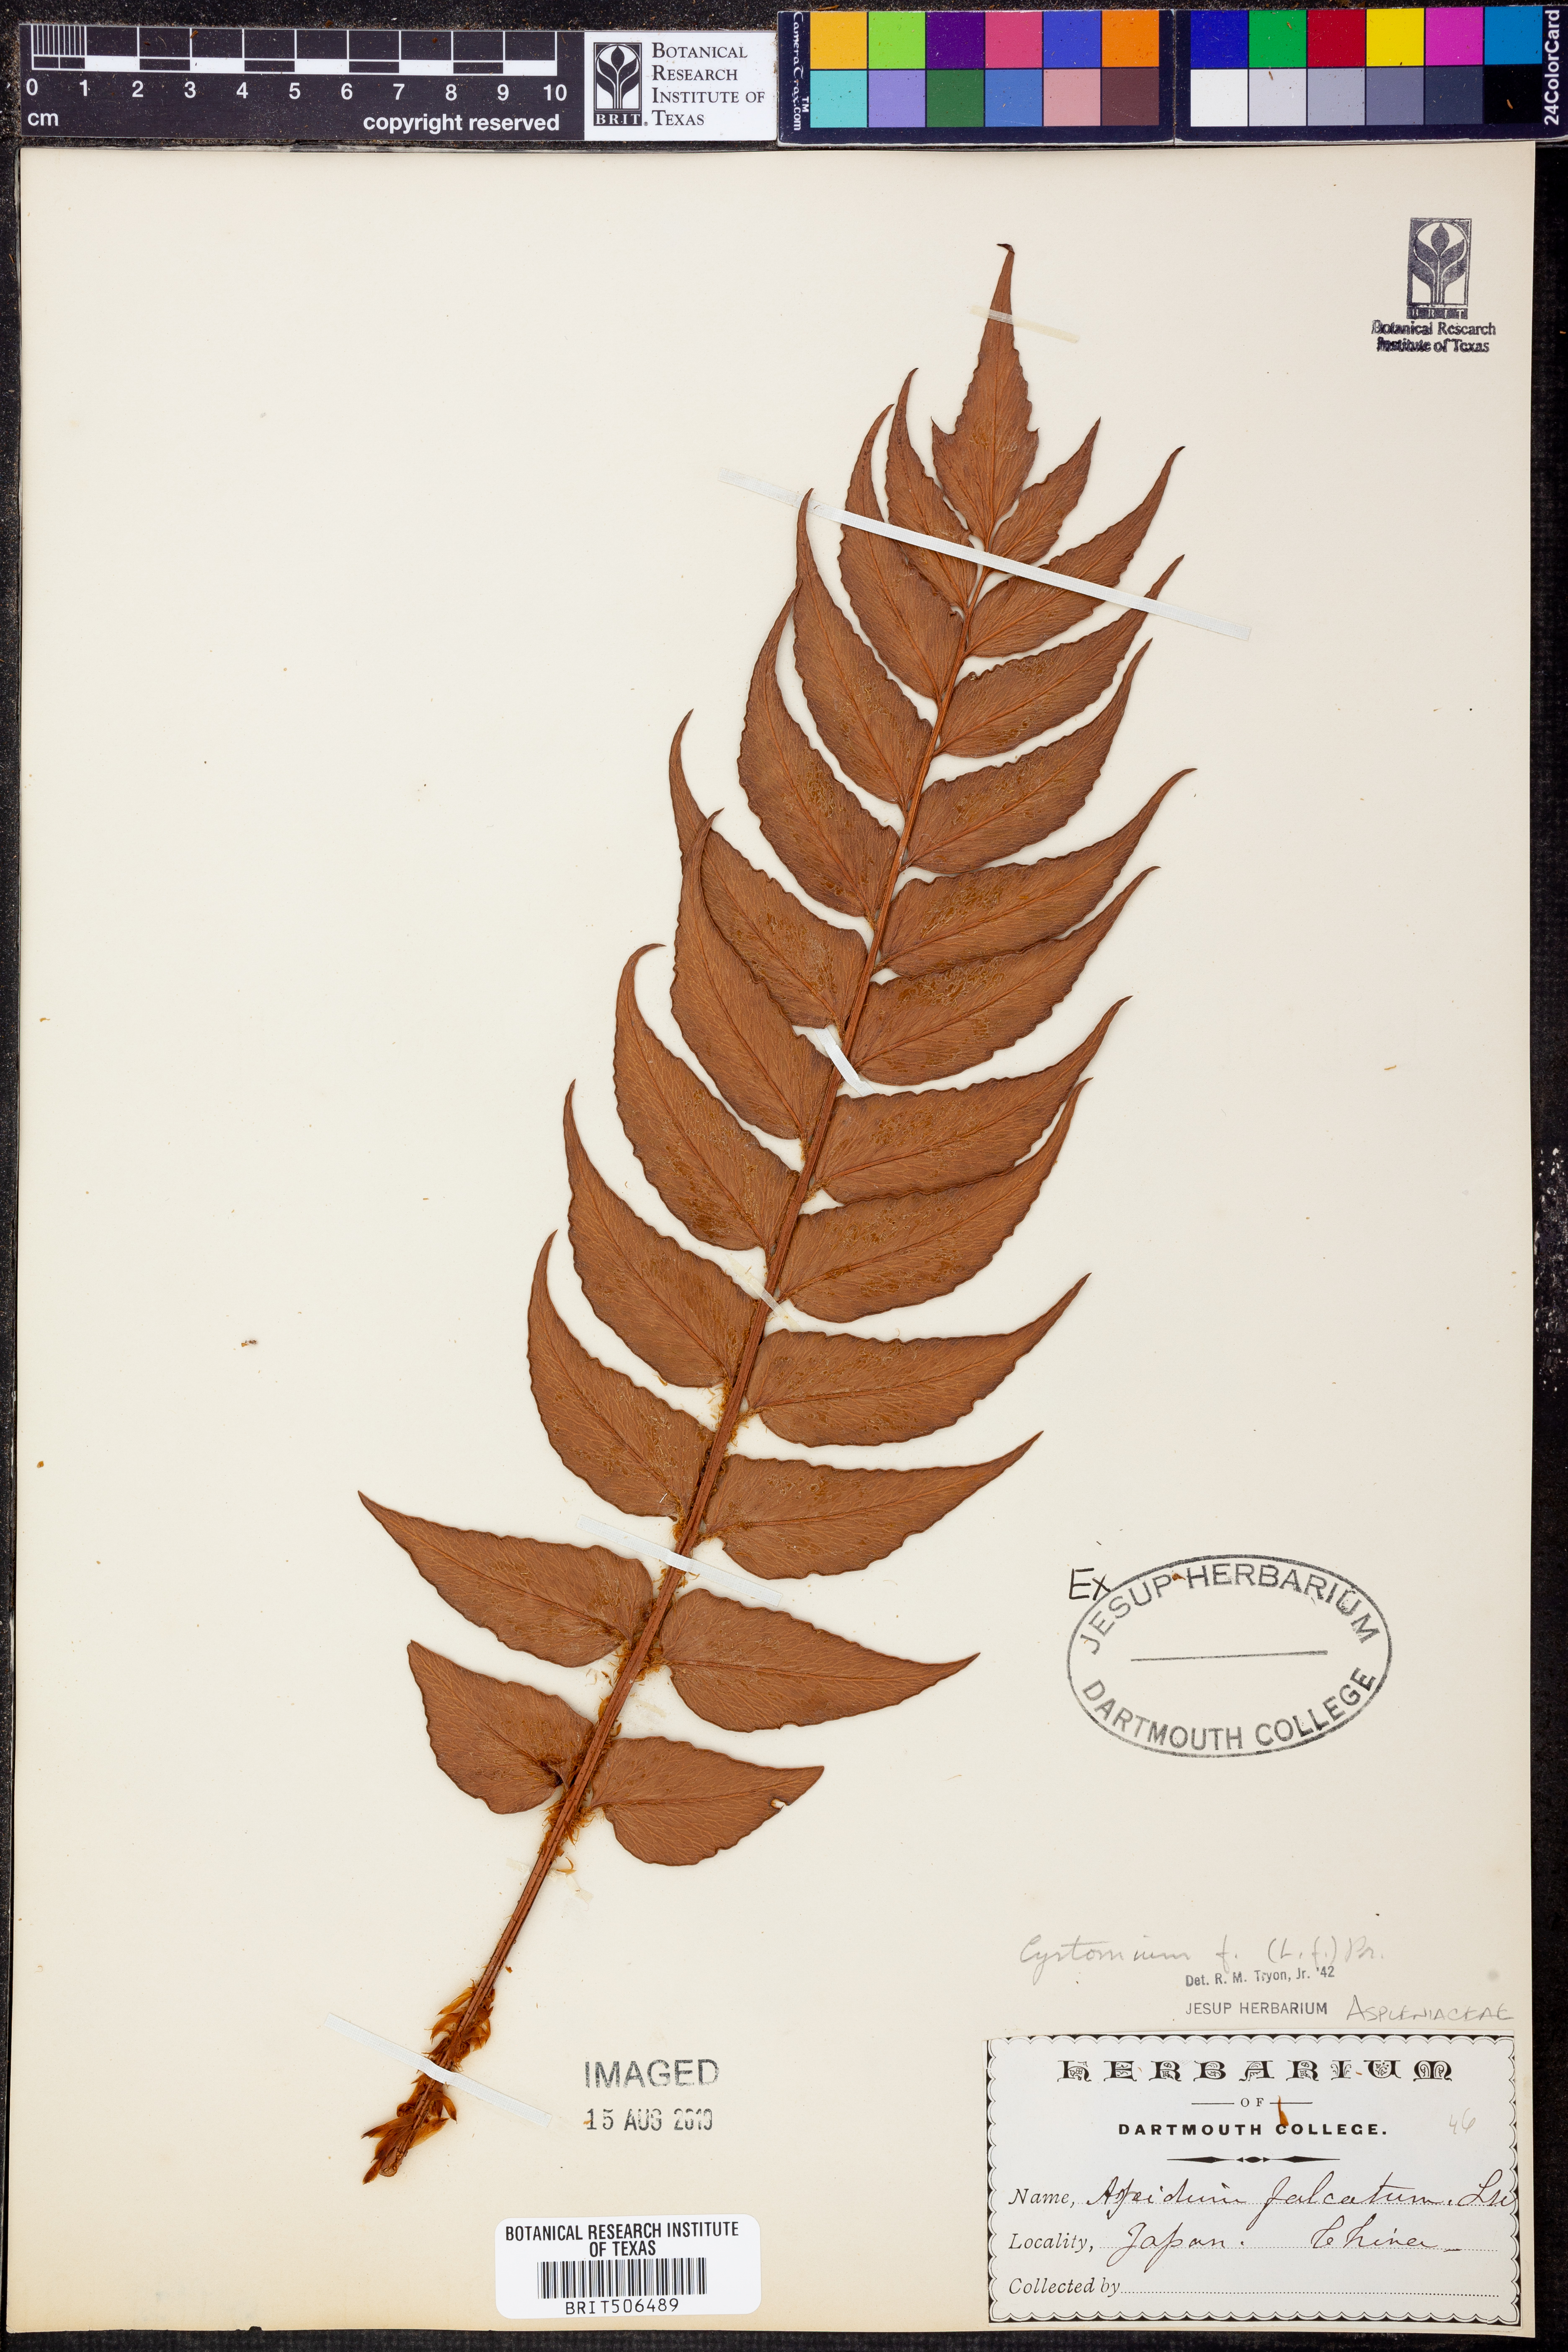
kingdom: Plantae
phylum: Tracheophyta
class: Polypodiopsida
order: Polypodiales
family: Dryopteridaceae
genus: Cyrtomium
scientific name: Cyrtomium falcatum
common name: House holly-fern
